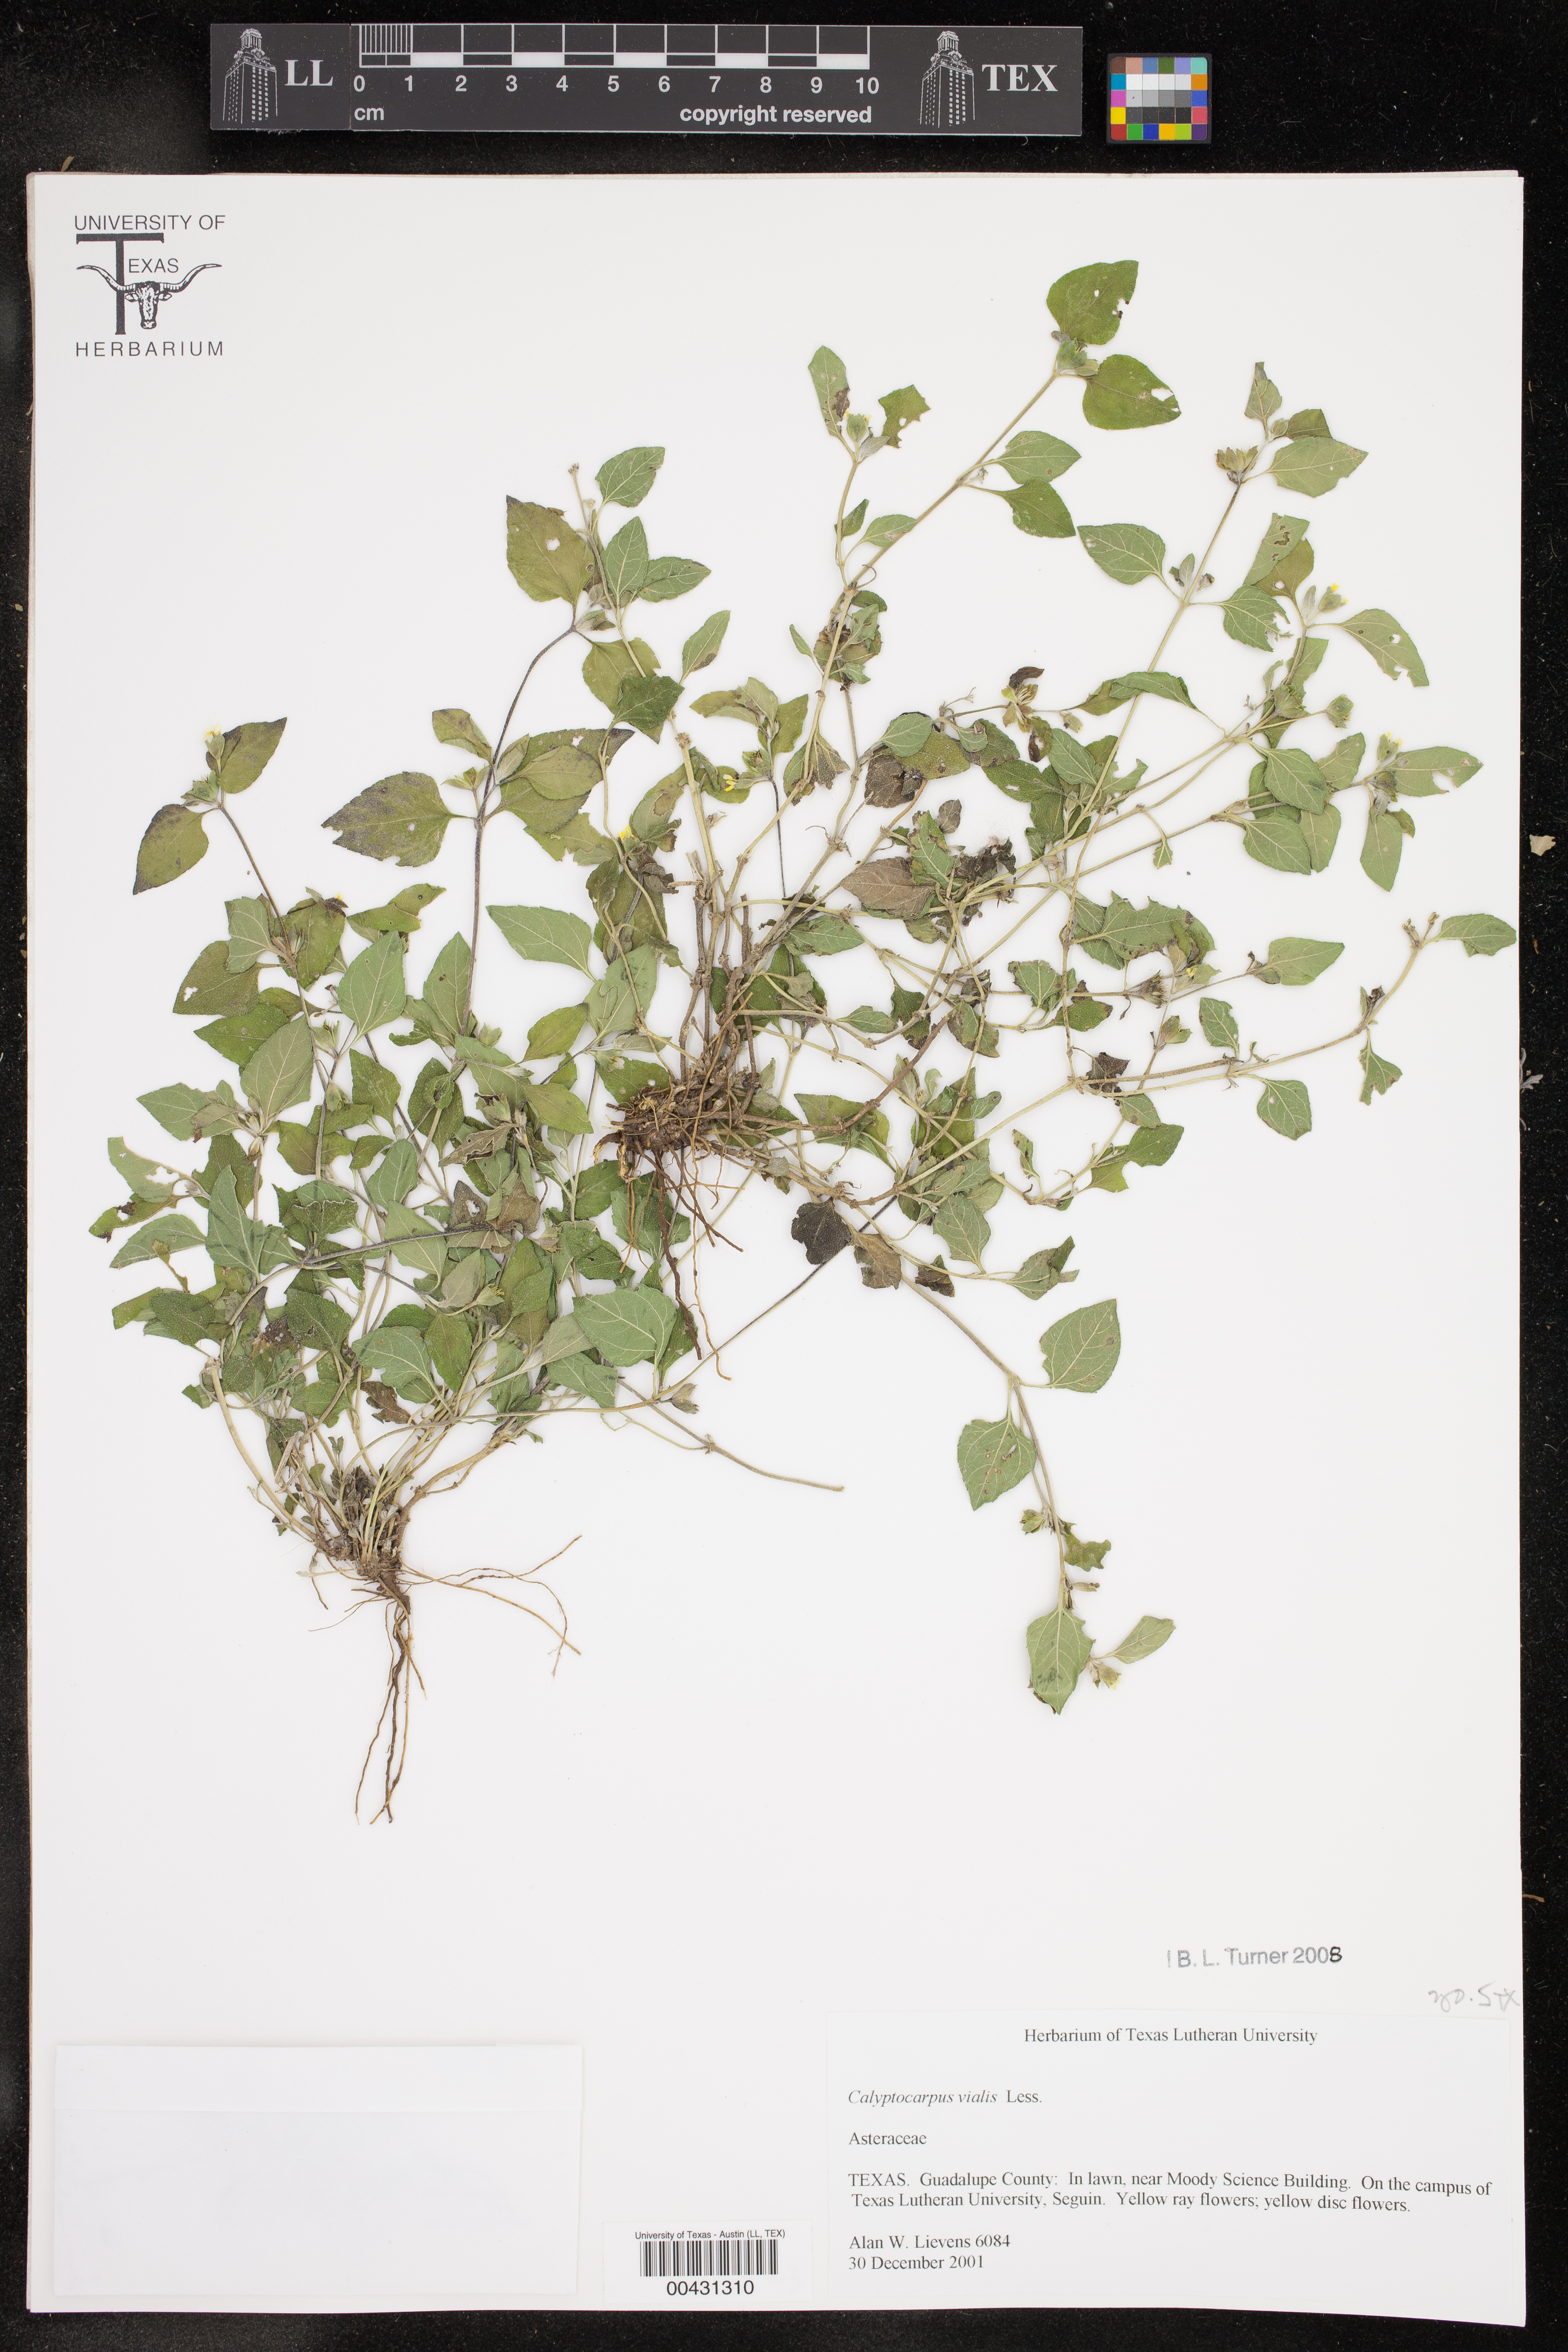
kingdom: Plantae
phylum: Tracheophyta
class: Magnoliopsida
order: Asterales
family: Asteraceae
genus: Calyptocarpus
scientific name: Calyptocarpus vialis
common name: Straggler daisy
